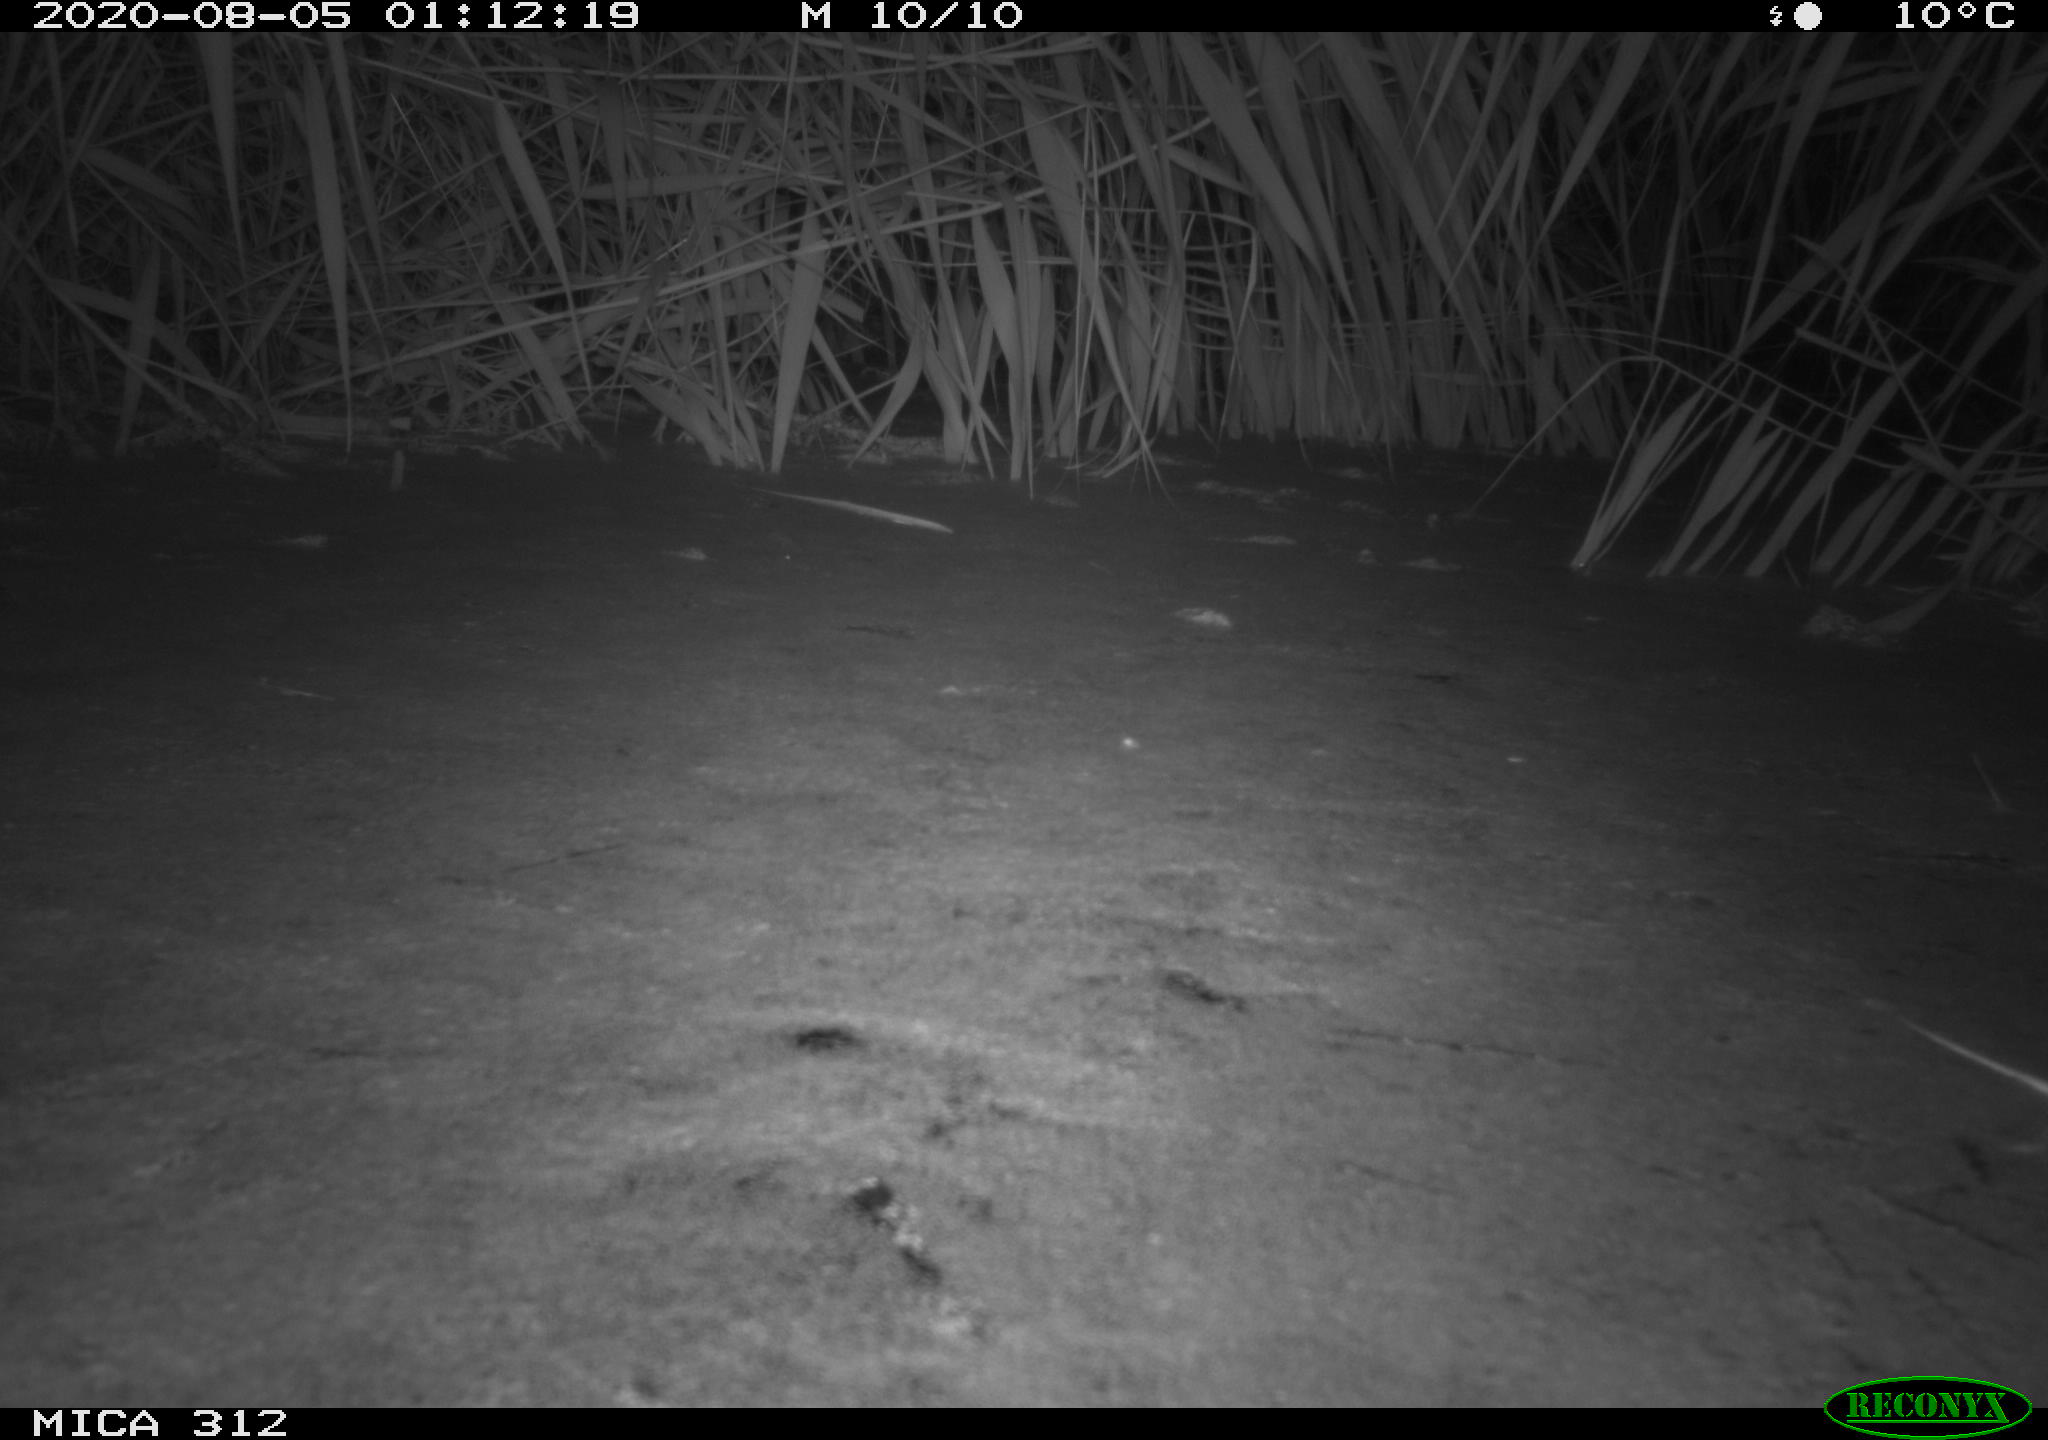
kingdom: Animalia
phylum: Chordata
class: Mammalia
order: Rodentia
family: Cricetidae
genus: Ondatra
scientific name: Ondatra zibethicus
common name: Muskrat
